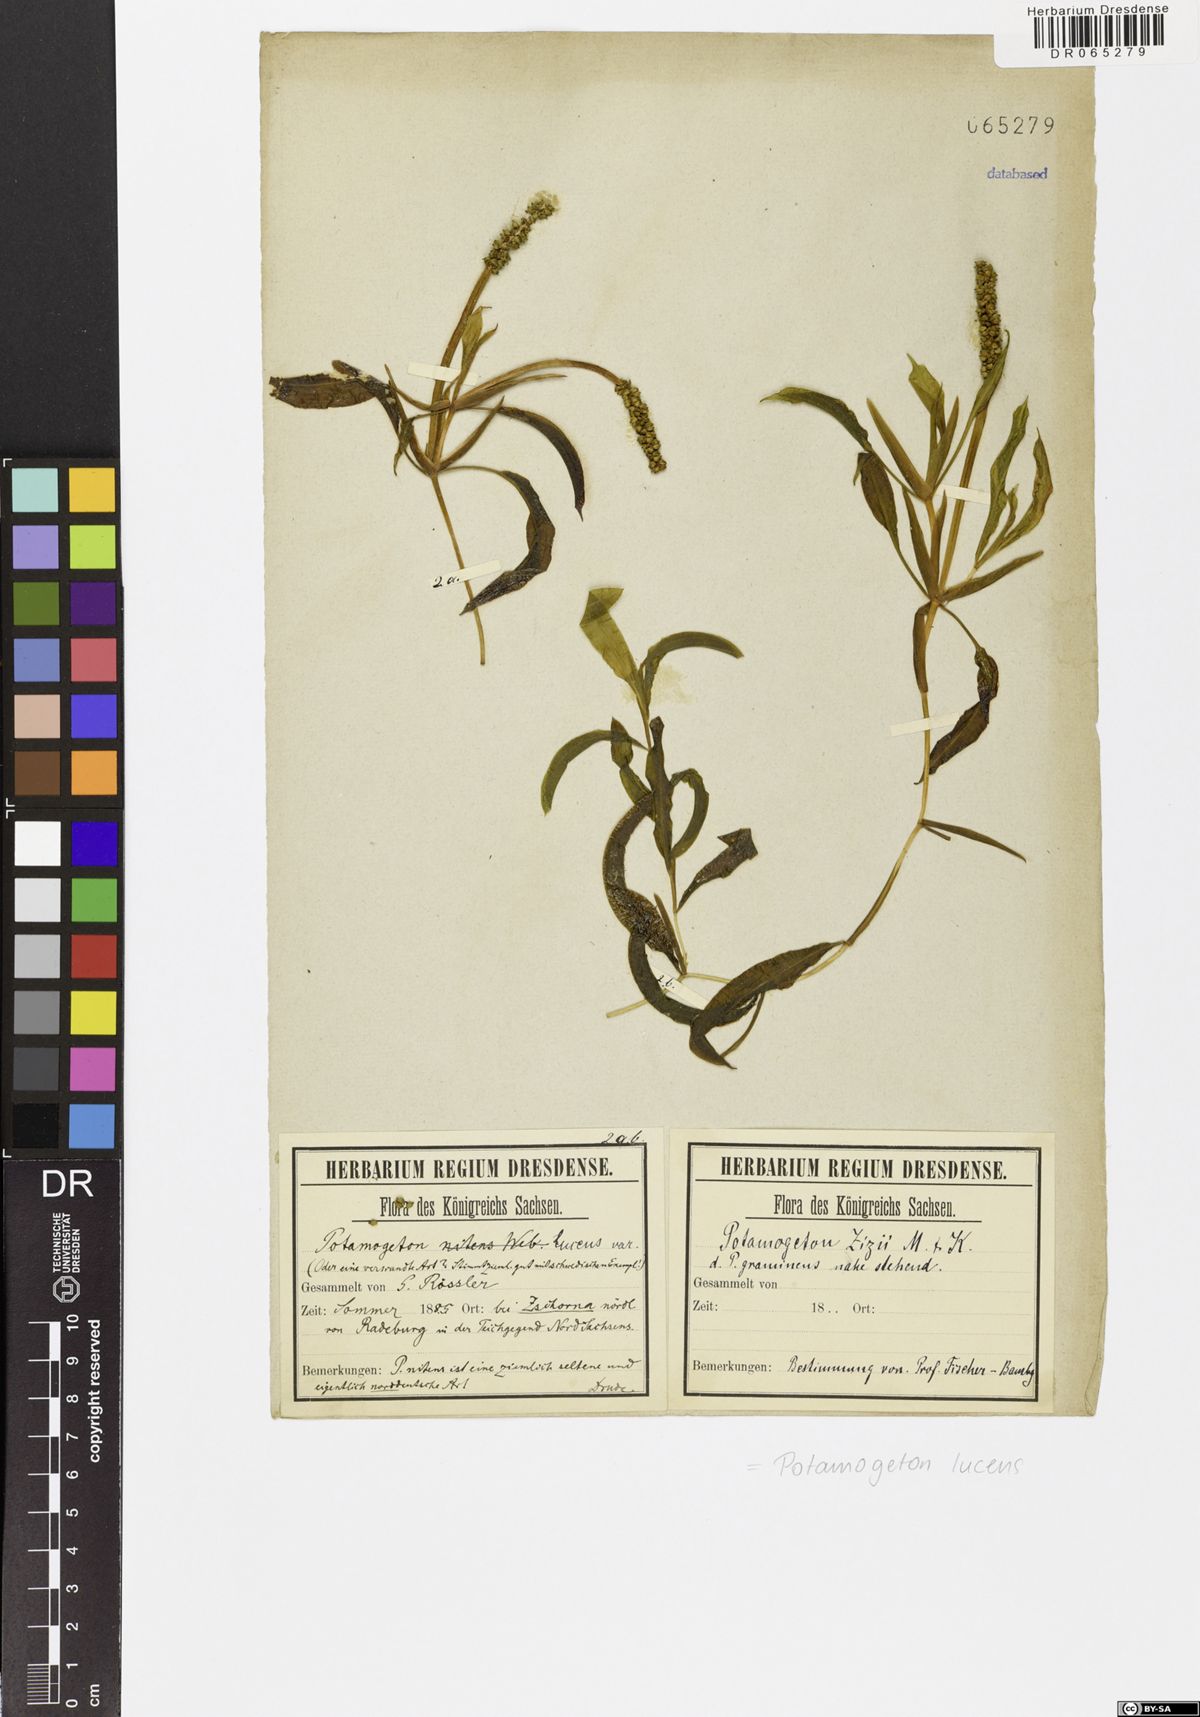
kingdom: Plantae
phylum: Tracheophyta
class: Liliopsida
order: Alismatales
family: Potamogetonaceae
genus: Potamogeton
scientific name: Potamogeton lucens
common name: Shining pondweed
